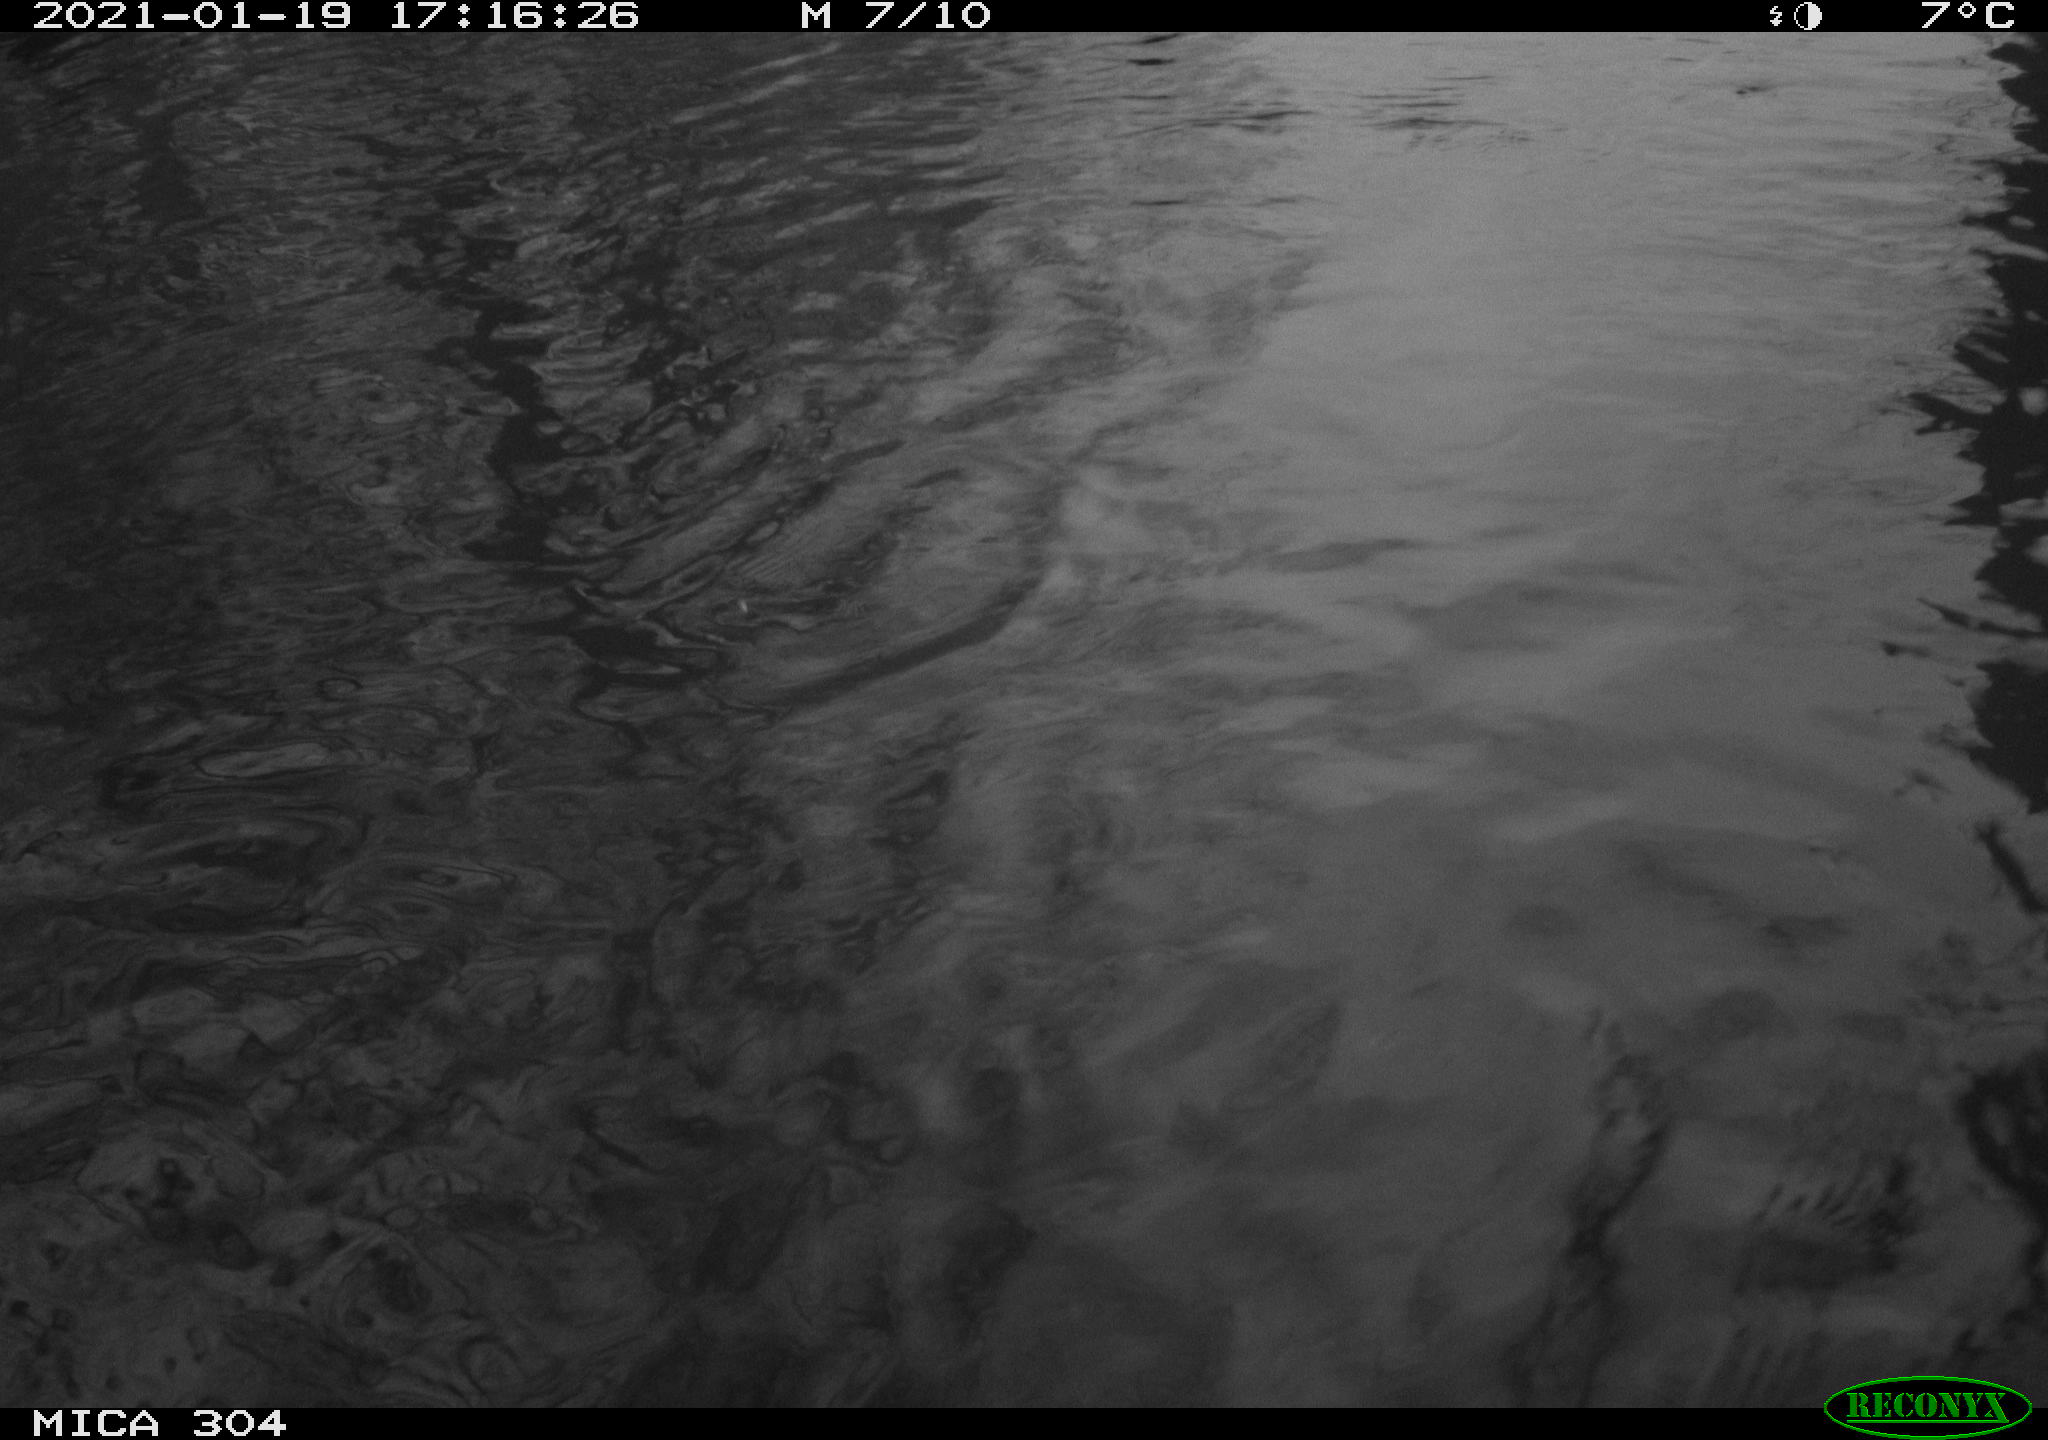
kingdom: Animalia
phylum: Chordata
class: Aves
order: Gruiformes
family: Rallidae
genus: Fulica
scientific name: Fulica atra
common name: Eurasian coot
